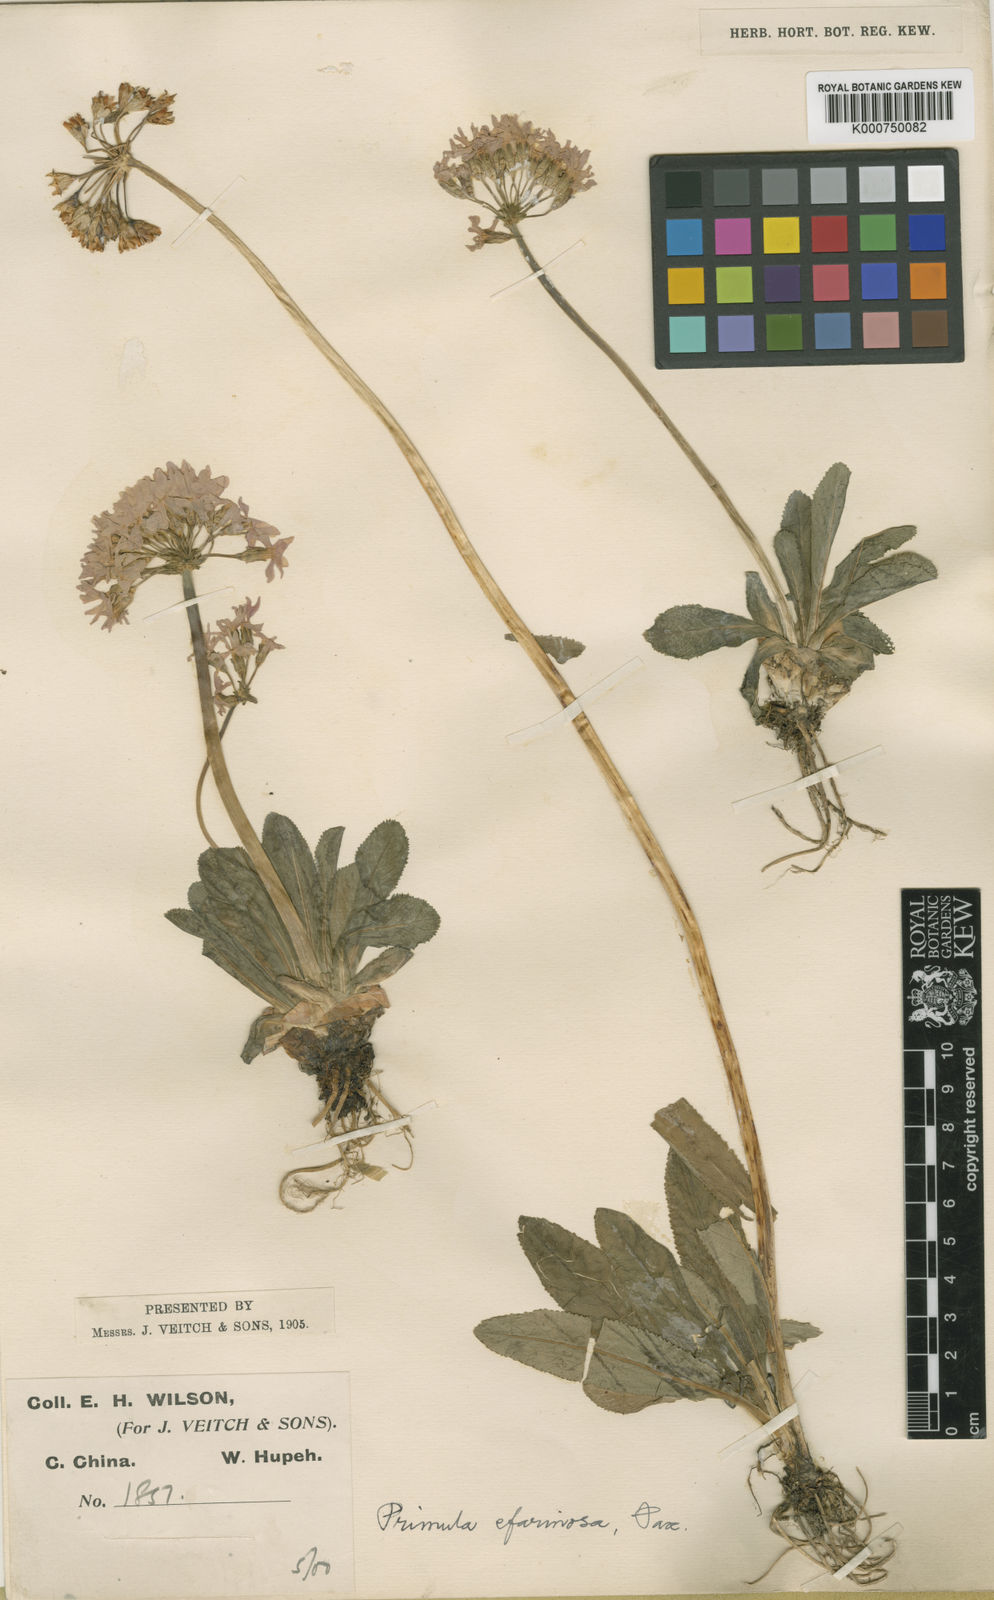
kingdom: Plantae
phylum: Tracheophyta
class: Magnoliopsida
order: Ericales
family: Primulaceae
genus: Primula
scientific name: Primula efarinosa
